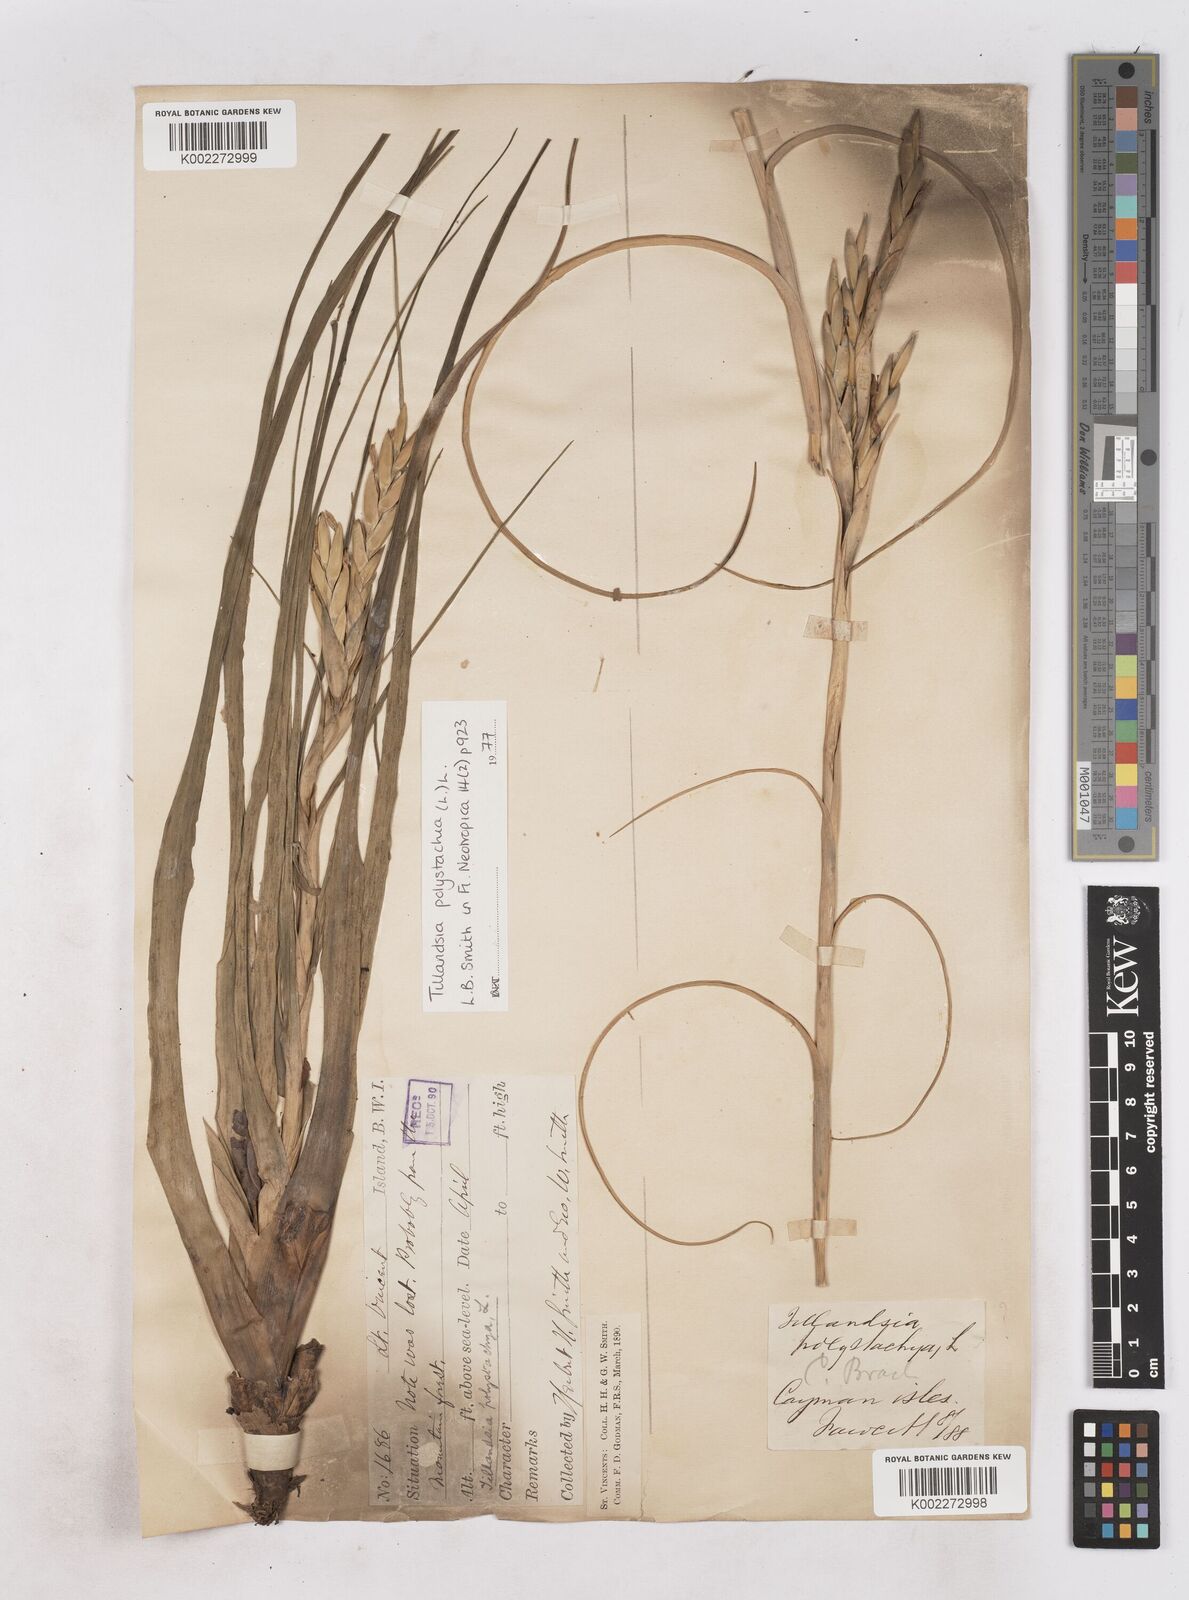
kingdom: Plantae
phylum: Tracheophyta
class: Liliopsida
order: Poales
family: Bromeliaceae
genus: Tillandsia
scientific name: Tillandsia polystachia
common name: Airplant
